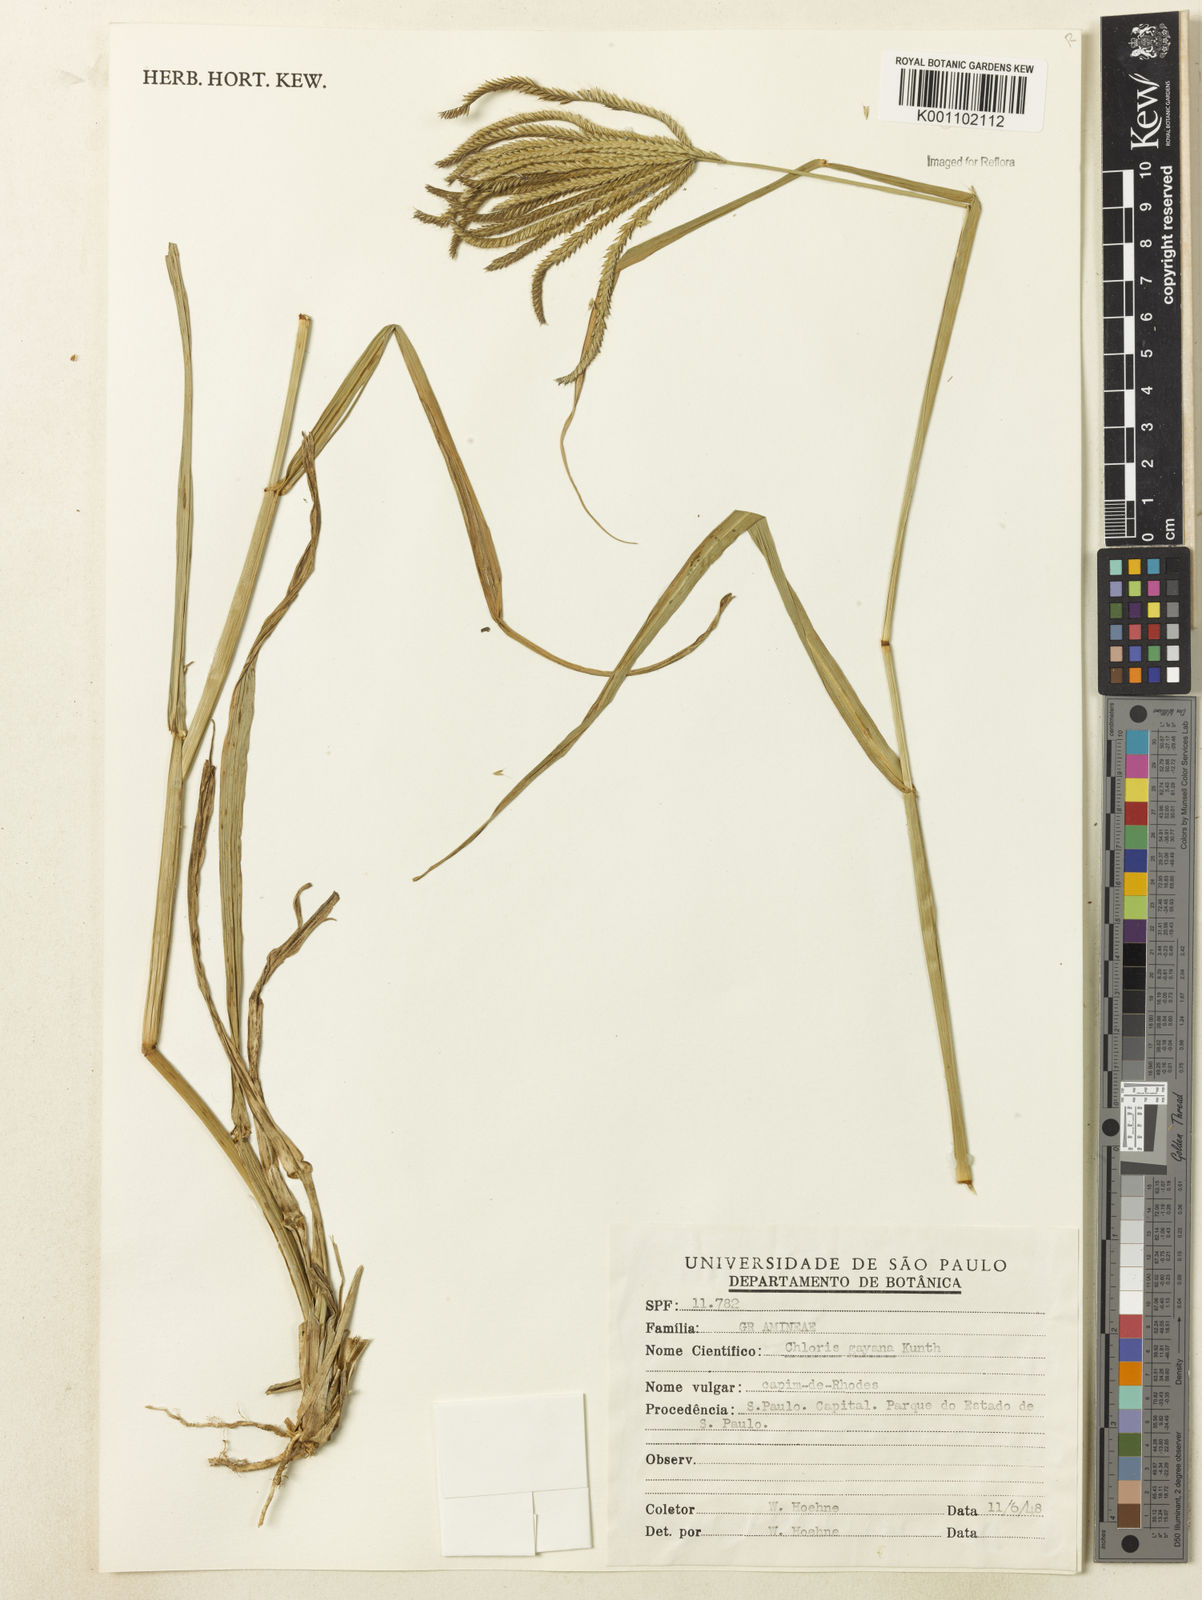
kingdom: Plantae
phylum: Tracheophyta
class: Liliopsida
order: Poales
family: Poaceae
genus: Chloris
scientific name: Chloris gayana
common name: Rhodes grass
